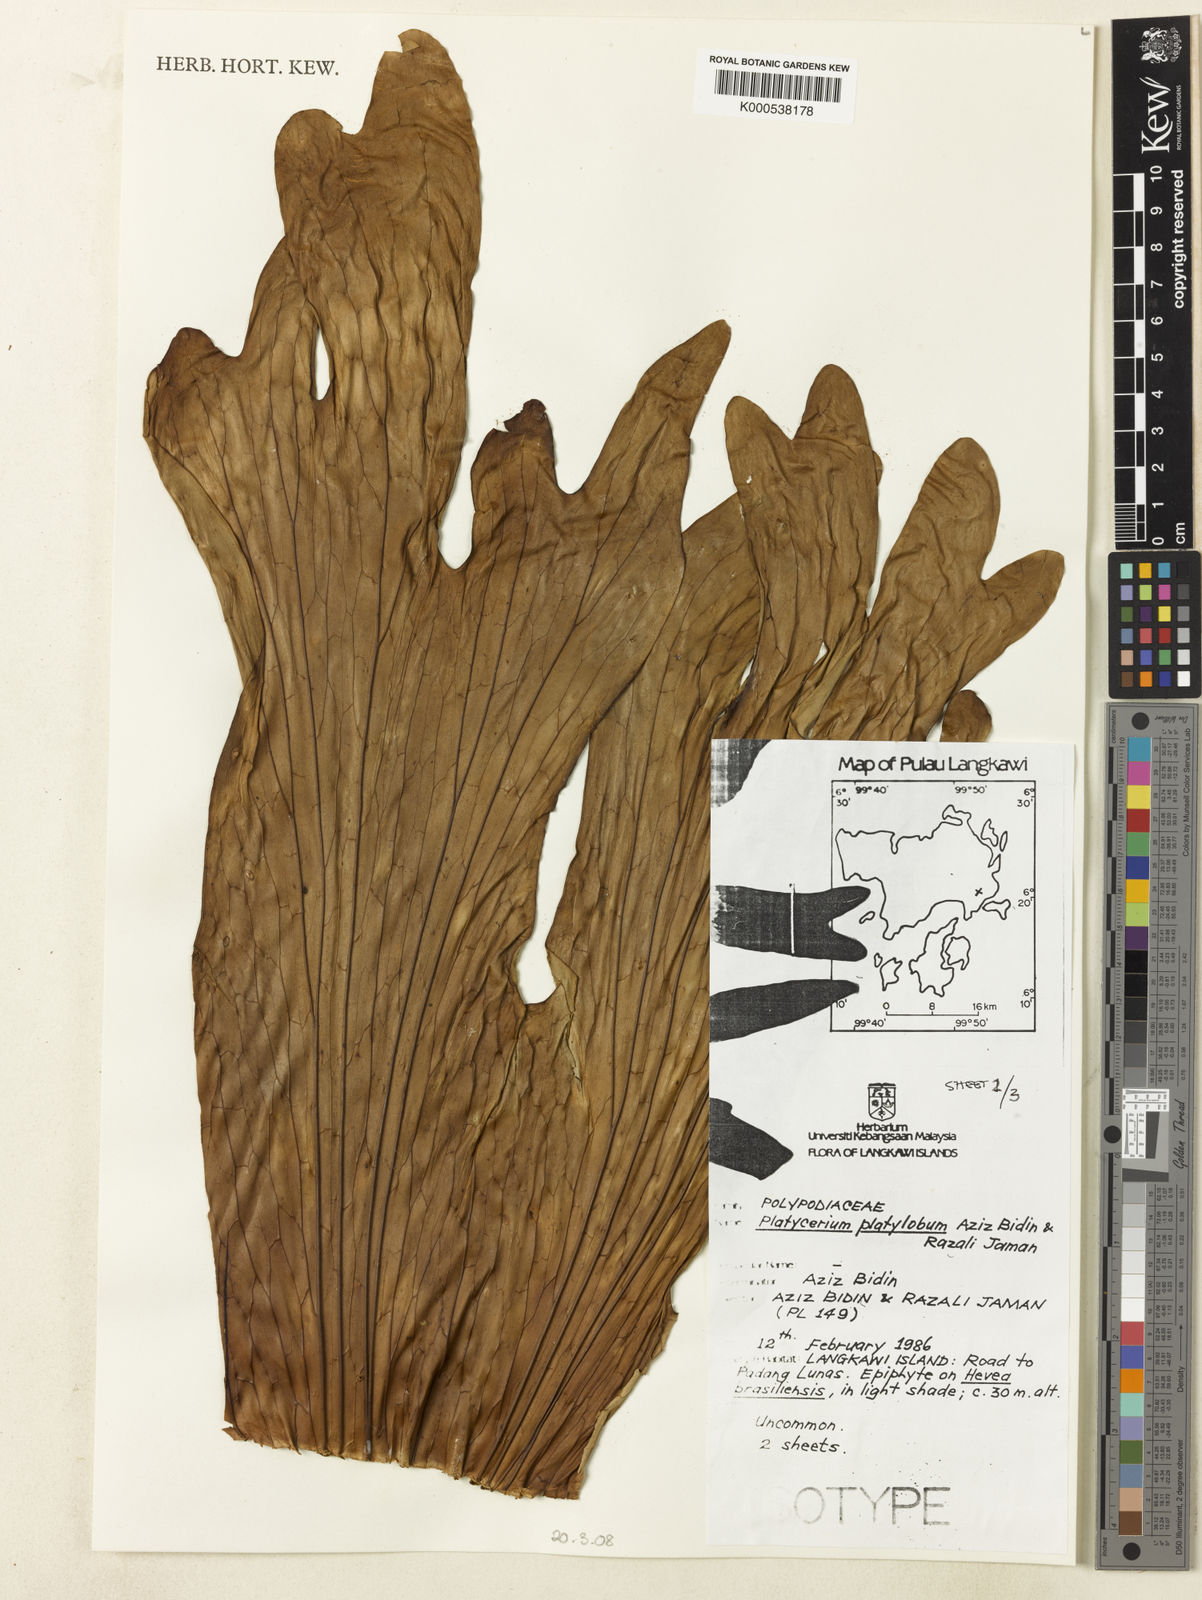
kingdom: Plantae
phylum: Tracheophyta
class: Polypodiopsida
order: Polypodiales
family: Polypodiaceae
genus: Platycerium
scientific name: Platycerium coronarium
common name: Elkhorn fern
